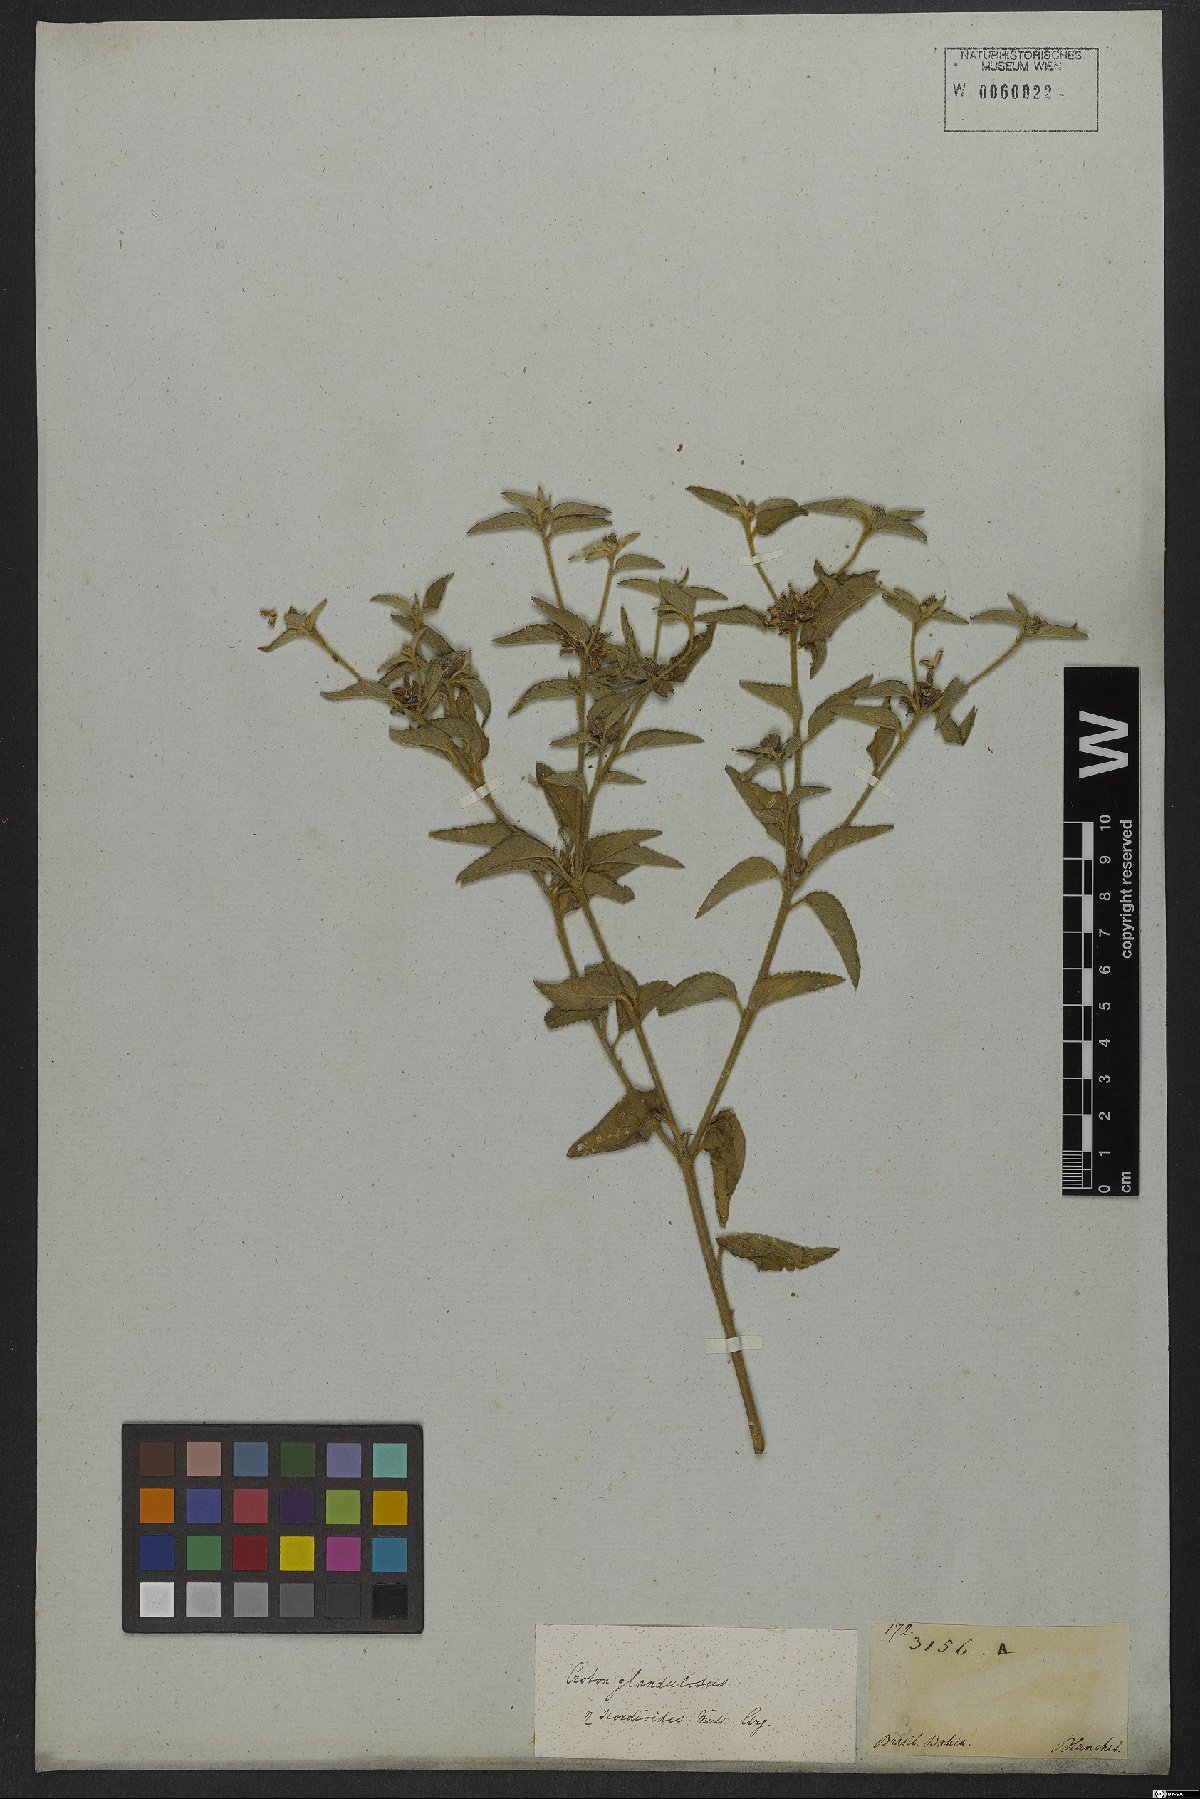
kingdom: Plantae
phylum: Tracheophyta
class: Magnoliopsida
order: Malpighiales
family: Euphorbiaceae
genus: Croton
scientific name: Croton glandulosus
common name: Tropic croton
